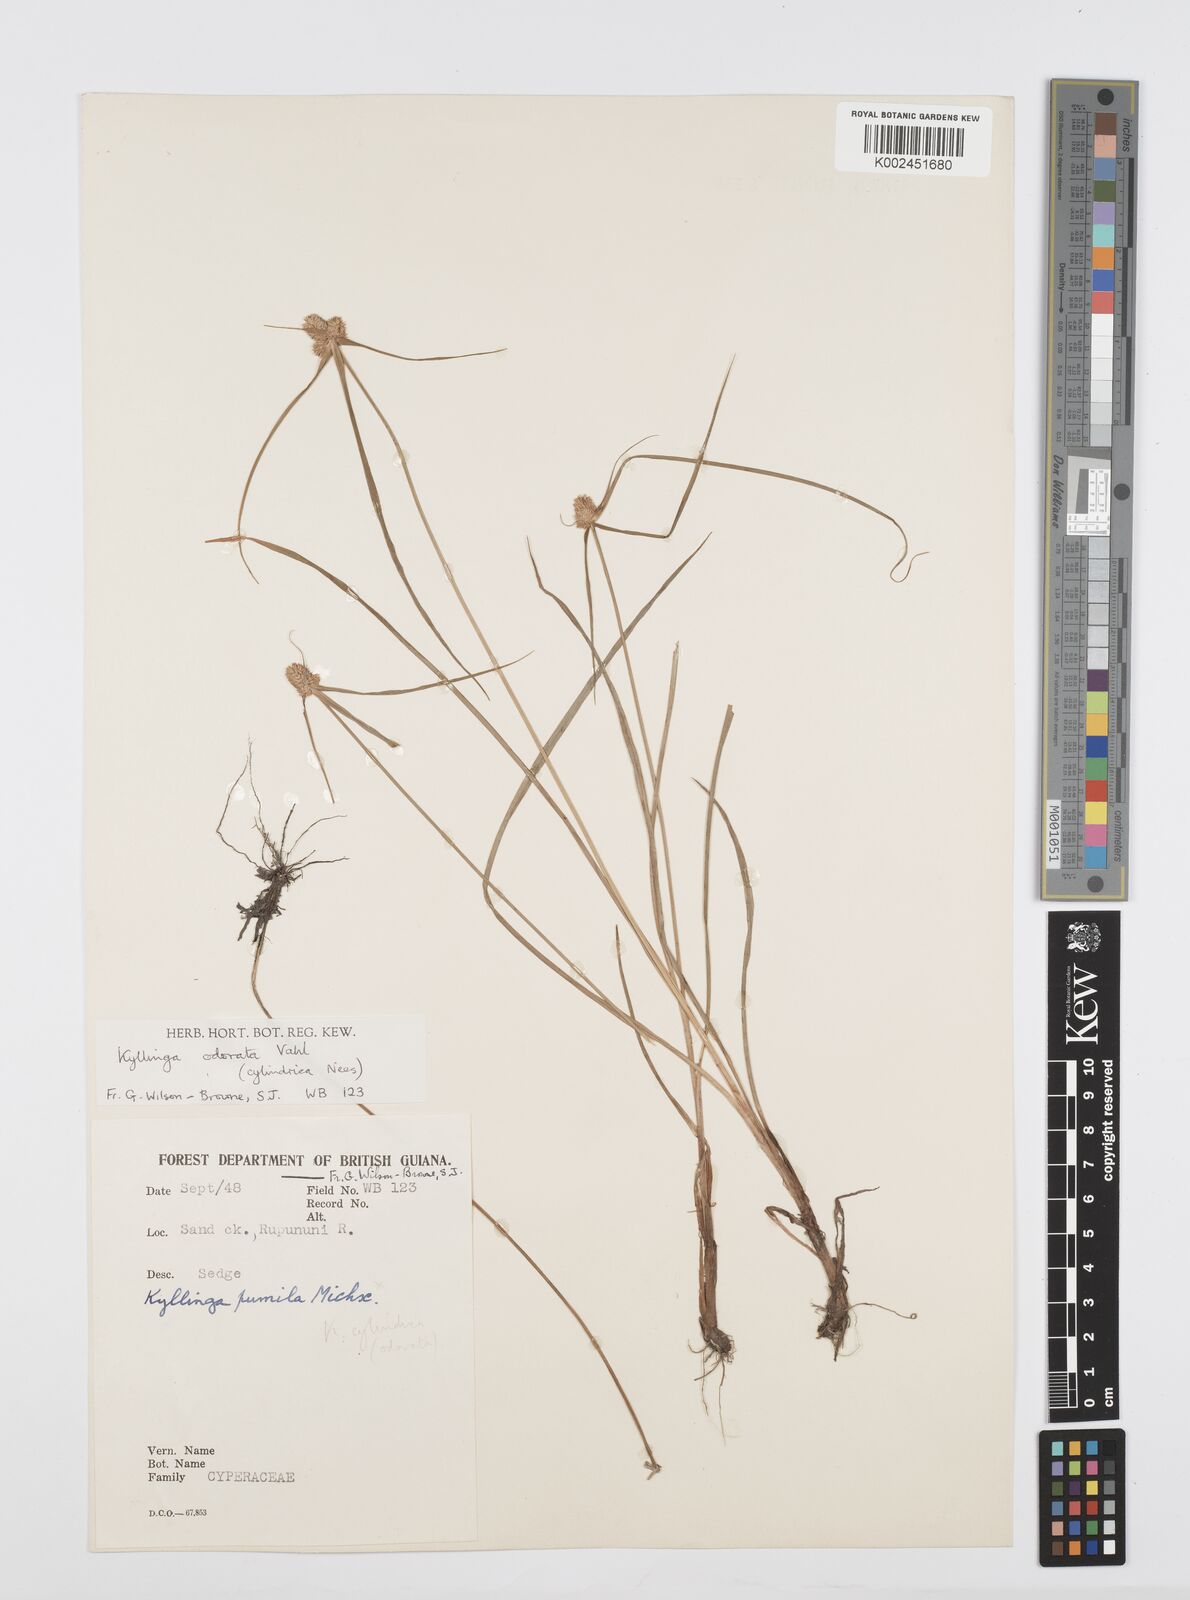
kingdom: Plantae
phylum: Tracheophyta
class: Liliopsida
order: Poales
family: Cyperaceae
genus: Cyperus
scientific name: Cyperus
